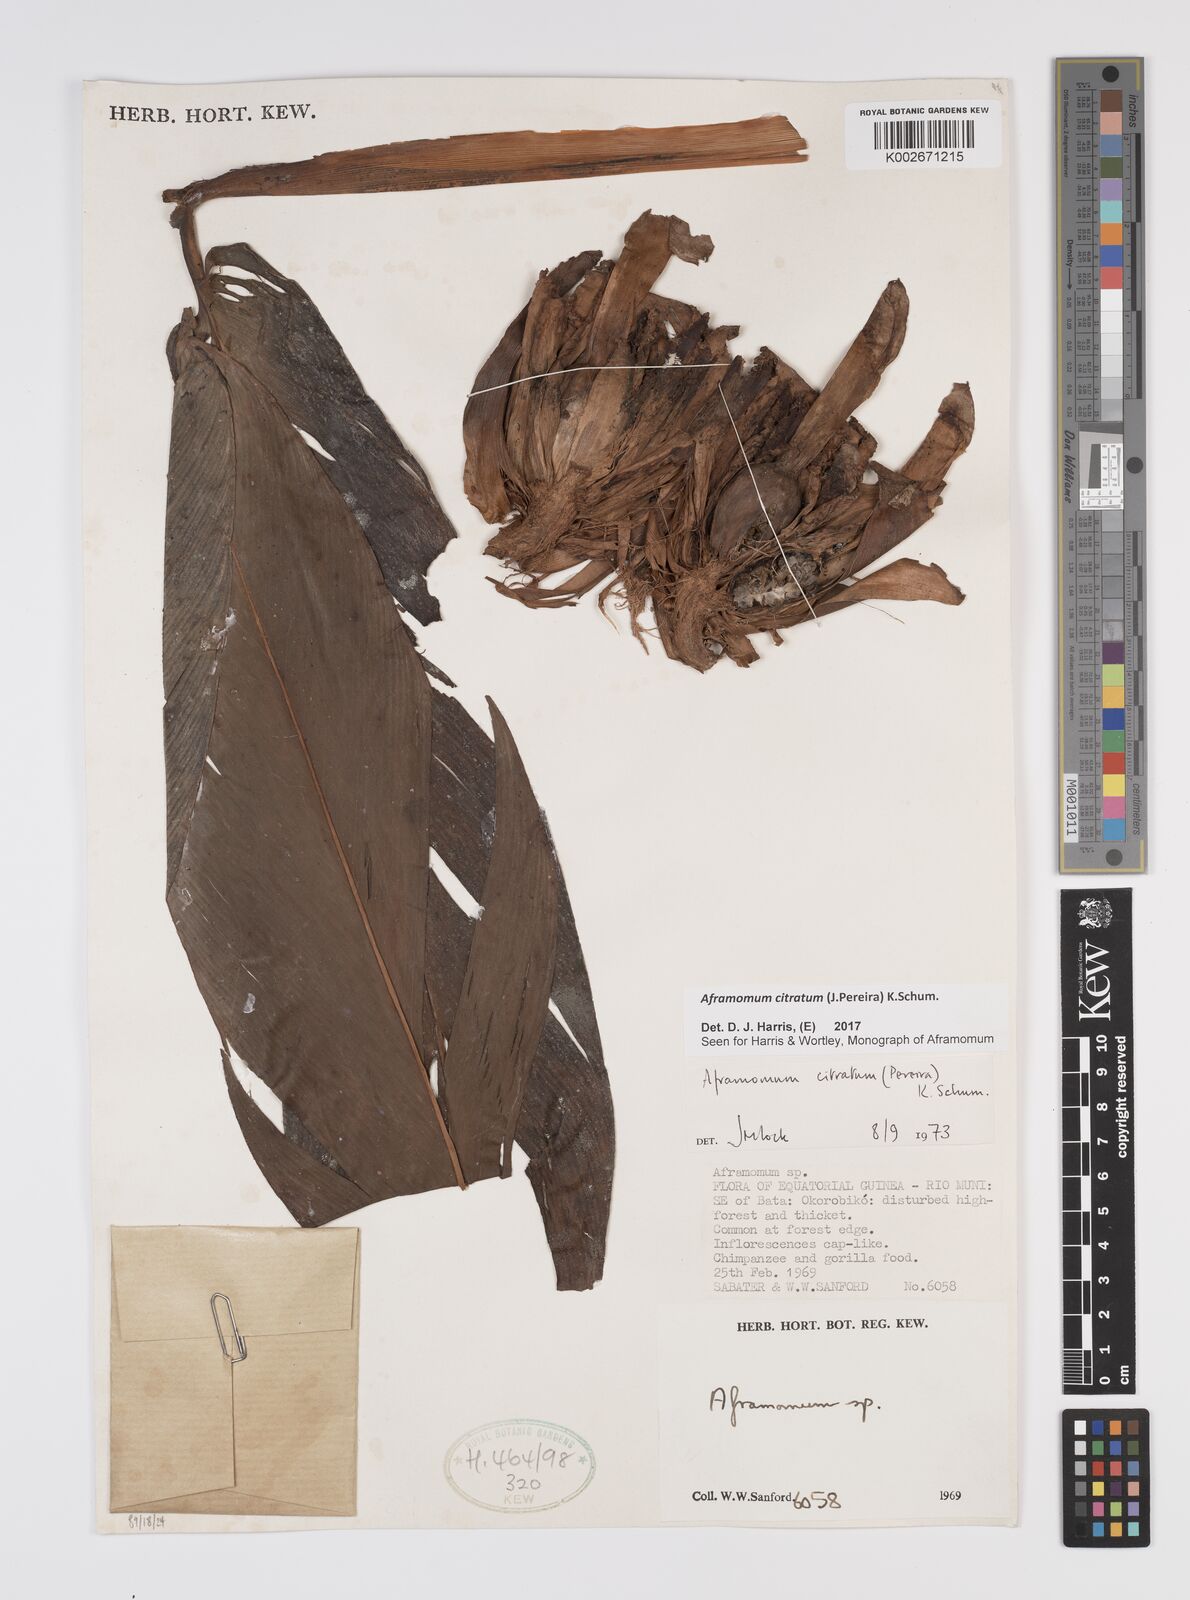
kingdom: Plantae
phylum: Tracheophyta
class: Liliopsida
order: Zingiberales
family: Zingiberaceae
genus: Aframomum
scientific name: Aframomum citratum
